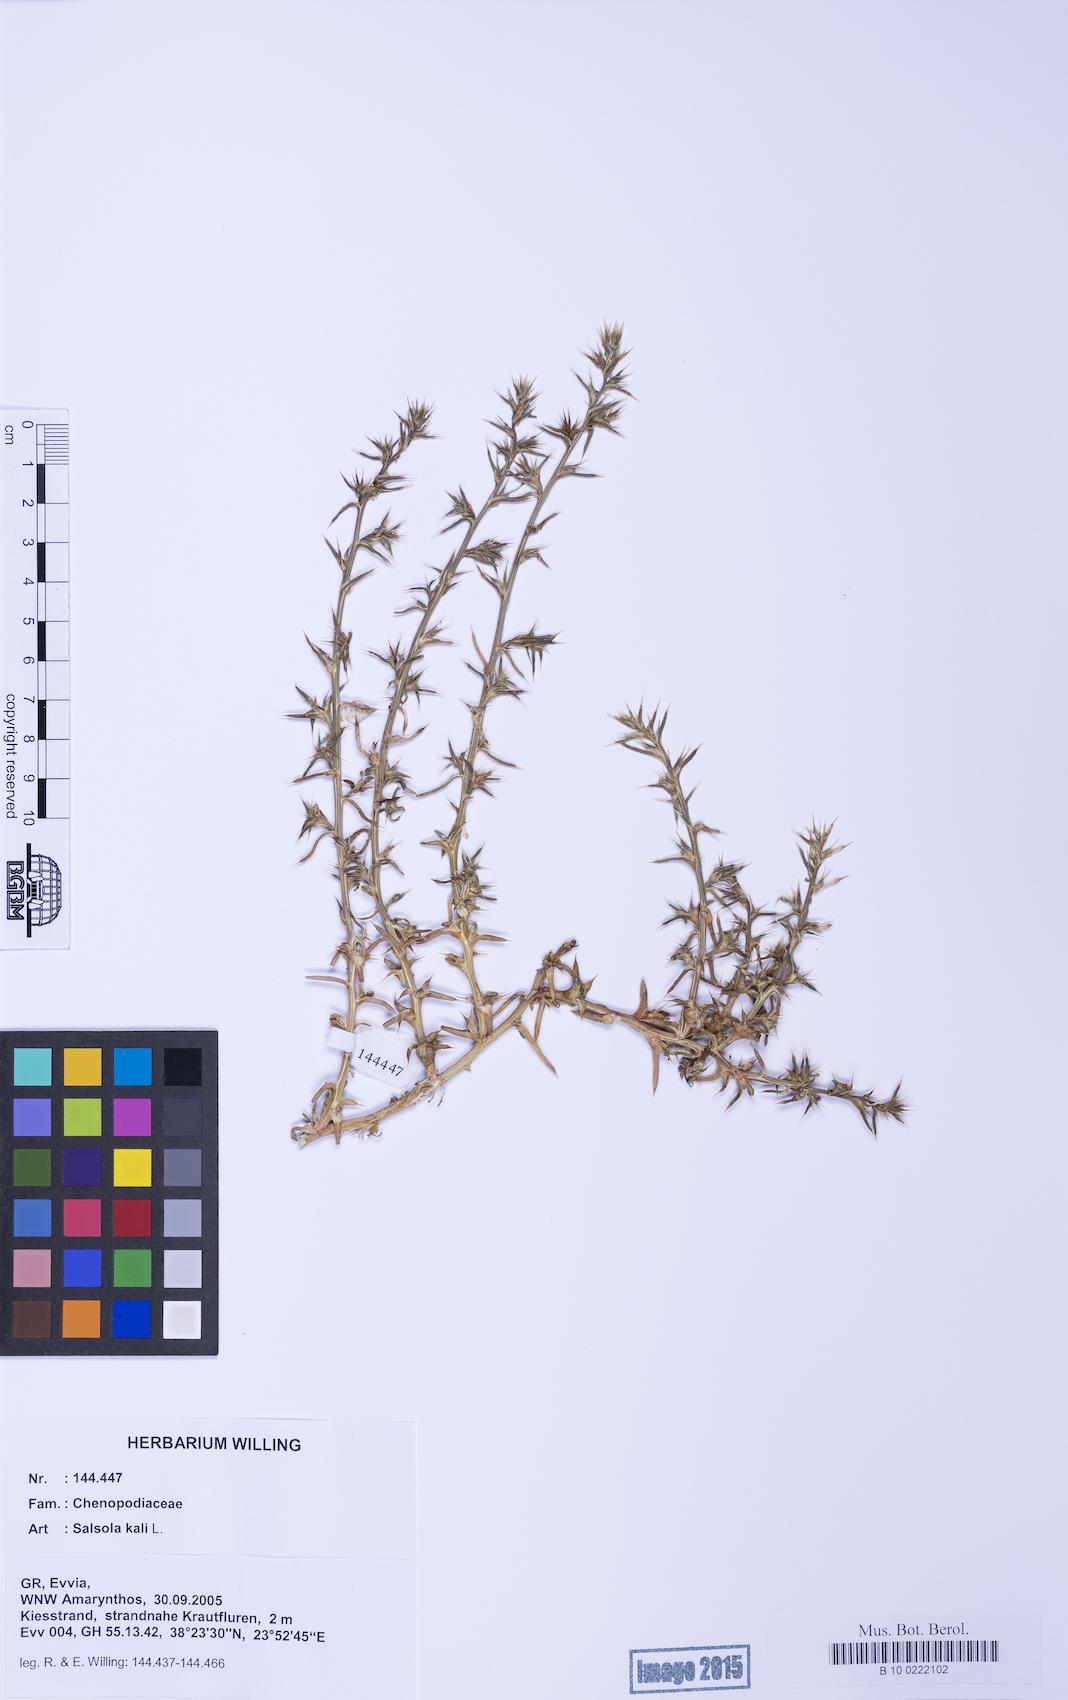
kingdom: Plantae
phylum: Tracheophyta
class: Magnoliopsida
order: Caryophyllales
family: Amaranthaceae
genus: Salsola
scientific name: Salsola kali
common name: Saltwort
